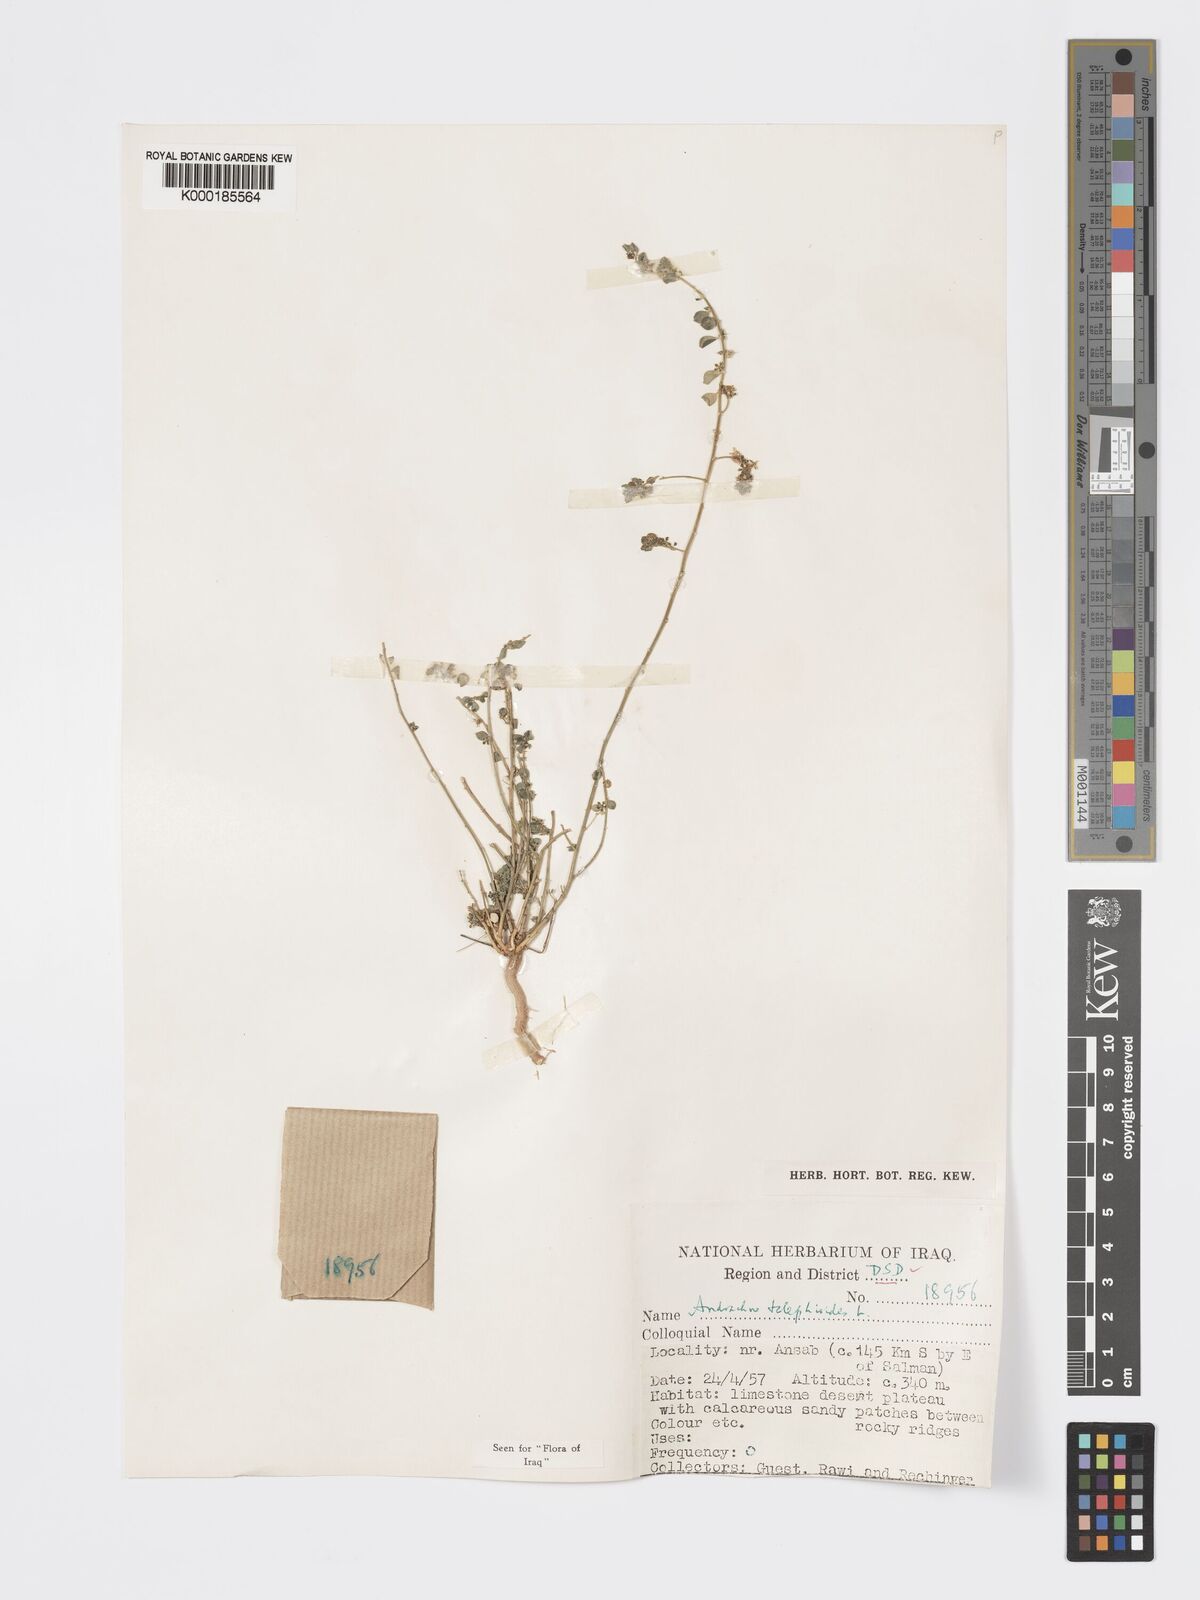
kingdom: Plantae
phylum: Tracheophyta
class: Magnoliopsida
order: Malpighiales
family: Phyllanthaceae
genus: Andrachne
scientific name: Andrachne telephioides
